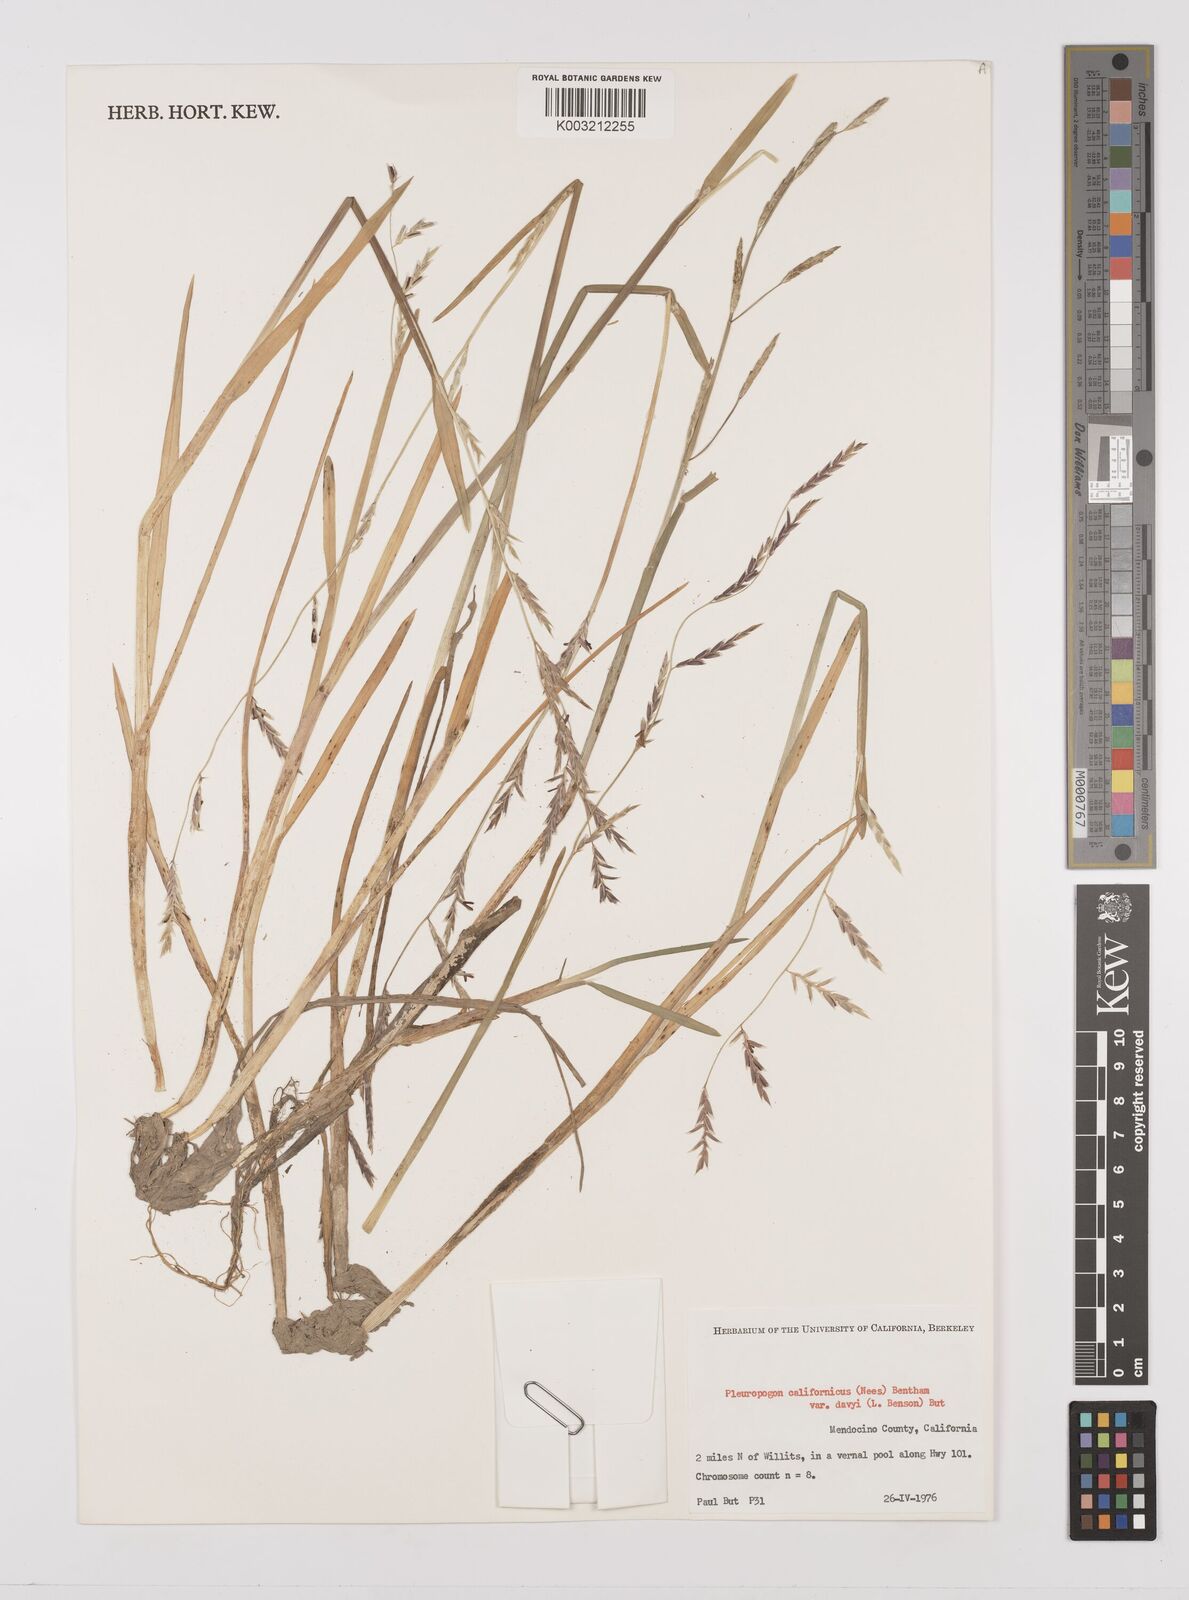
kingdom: Plantae
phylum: Tracheophyta
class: Liliopsida
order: Poales
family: Poaceae
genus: Pleuropogon
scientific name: Pleuropogon californicus
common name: California semaphore grass
